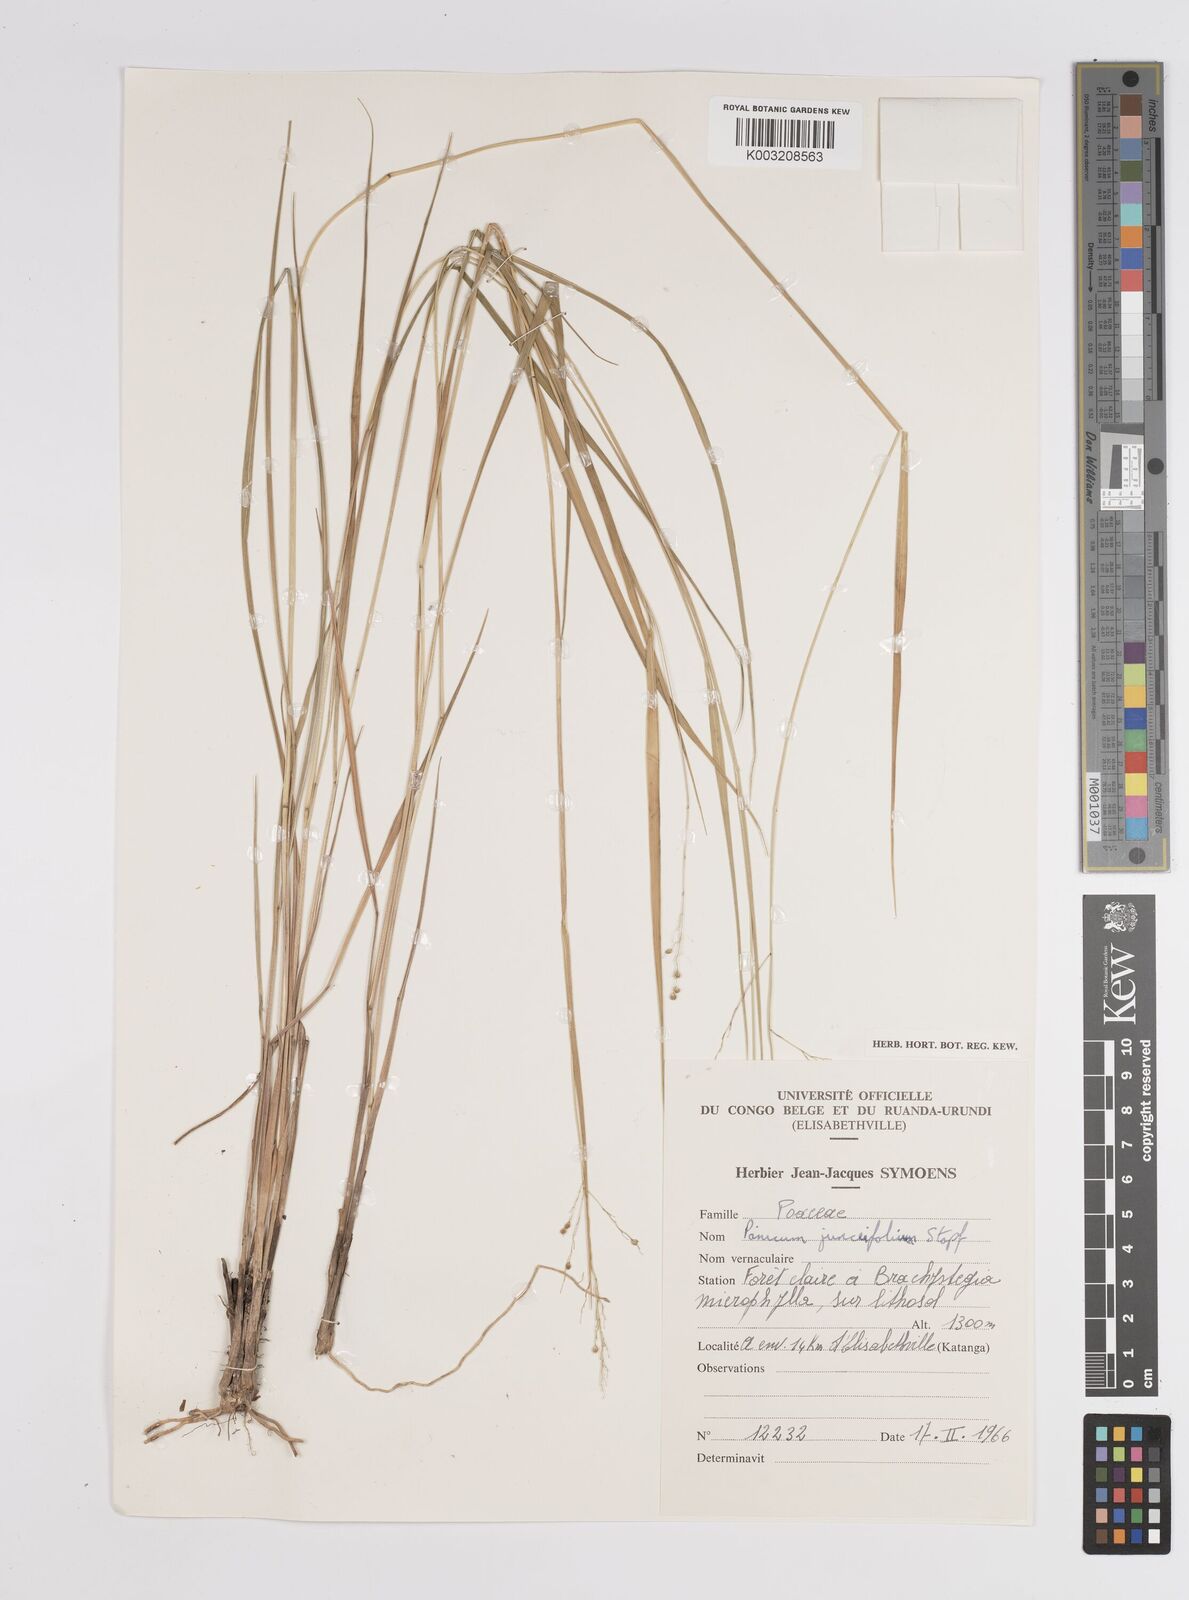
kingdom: Plantae
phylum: Tracheophyta
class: Liliopsida
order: Poales
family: Poaceae
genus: Trichanthecium
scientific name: Trichanthecium natalense
